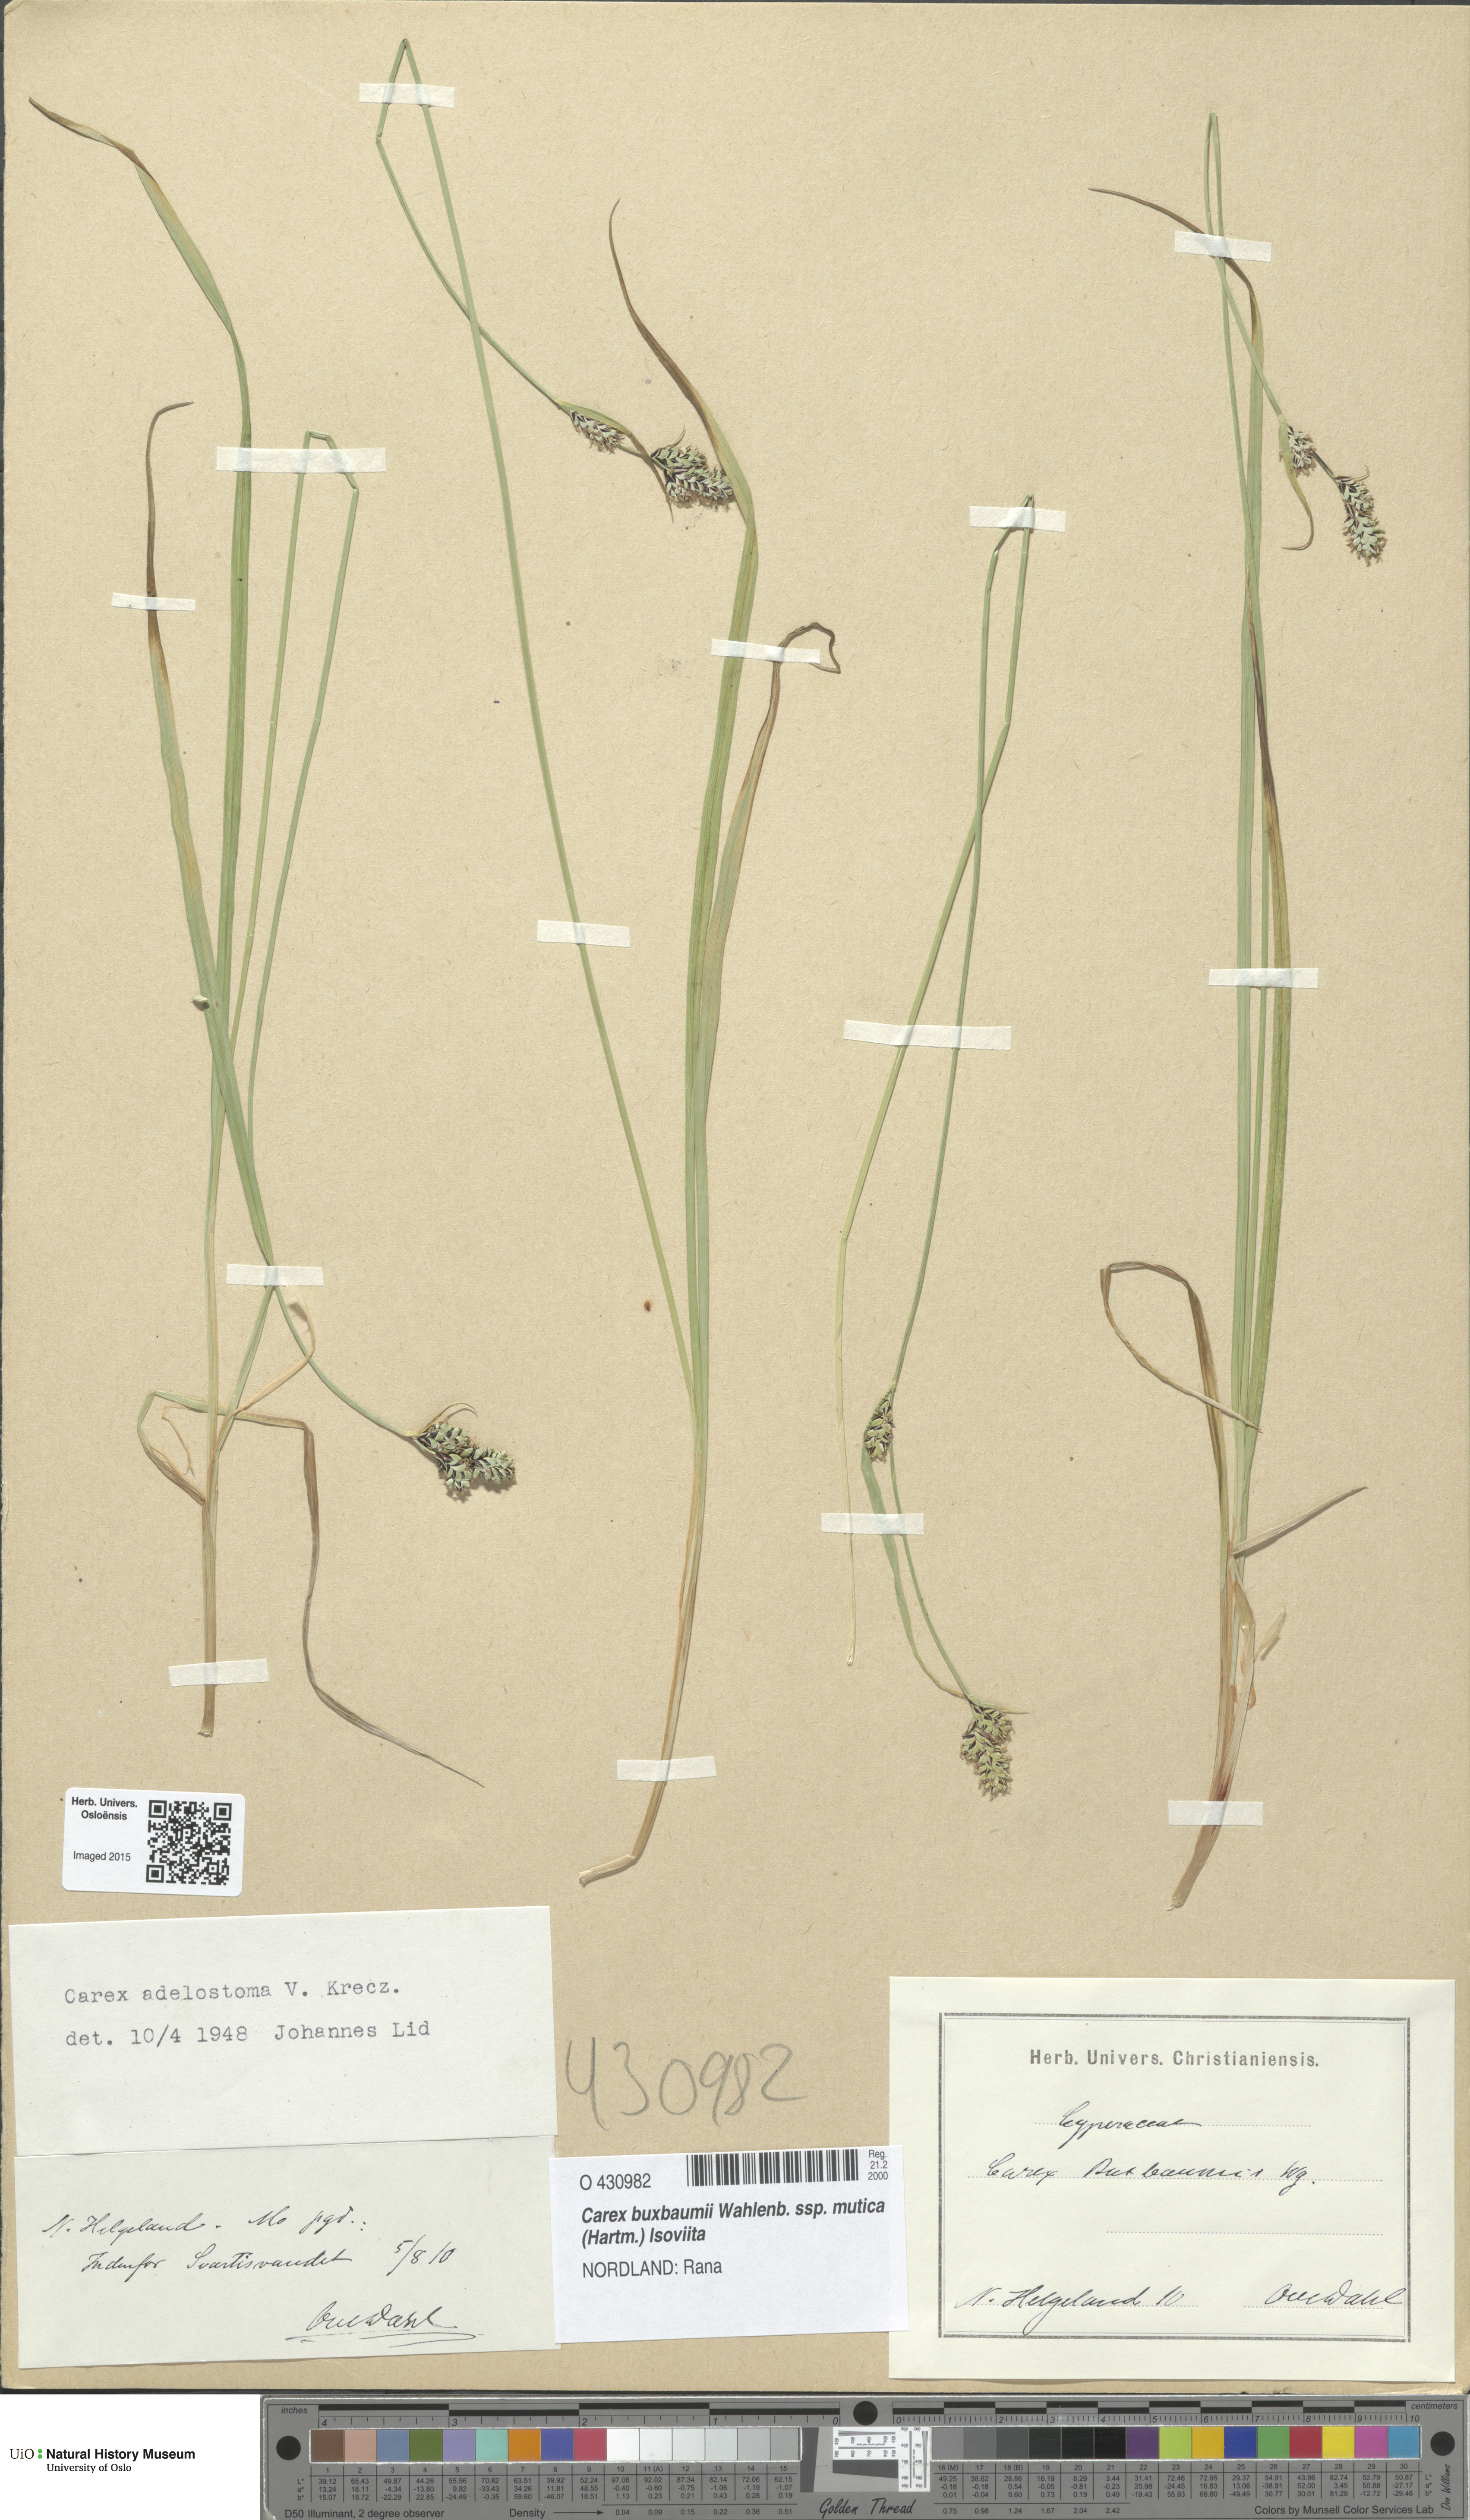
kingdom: Plantae
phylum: Tracheophyta
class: Liliopsida
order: Poales
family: Cyperaceae
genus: Carex
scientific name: Carex adelostoma
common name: Circumpolar sedge
